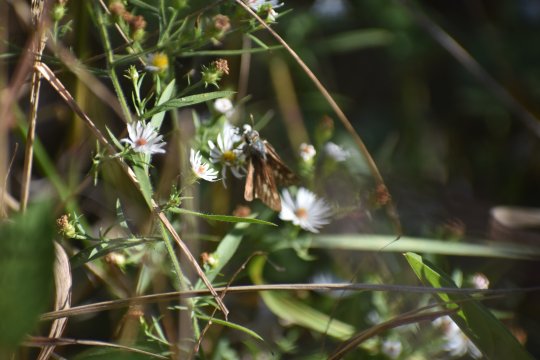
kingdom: Animalia
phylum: Arthropoda
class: Insecta
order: Lepidoptera
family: Hesperiidae
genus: Atalopedes
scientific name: Atalopedes campestris
